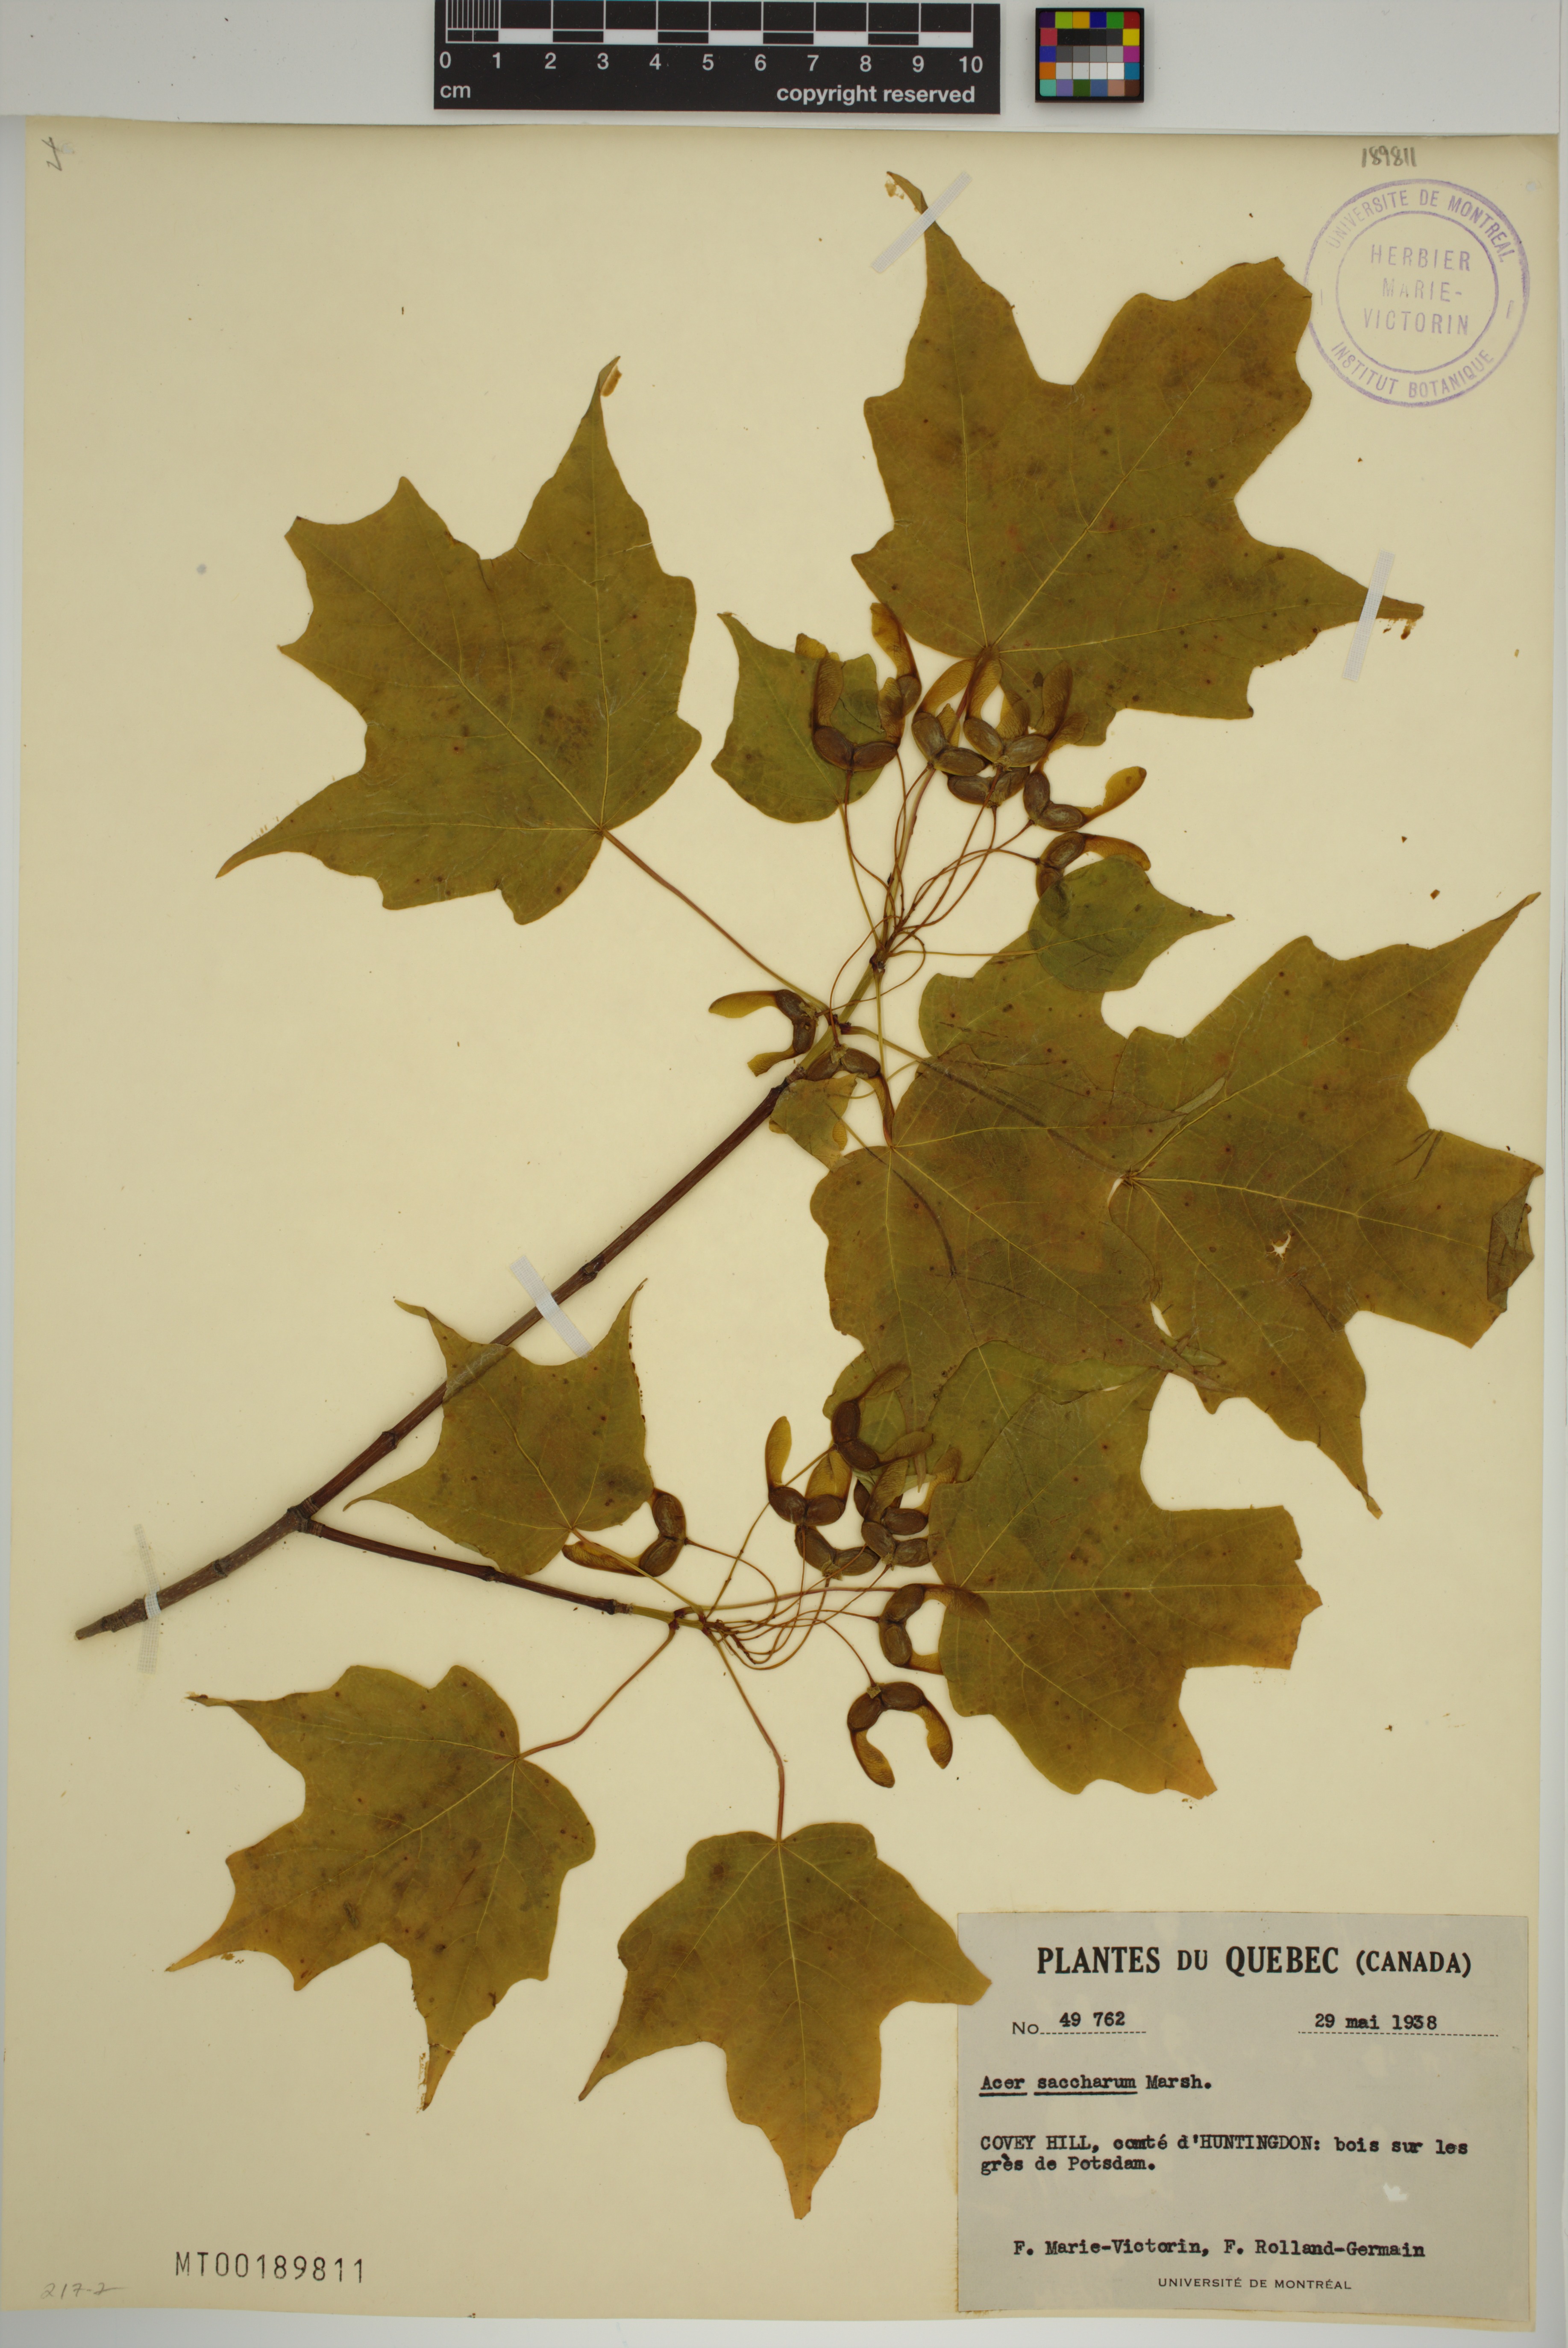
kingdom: Plantae
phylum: Tracheophyta
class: Magnoliopsida
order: Sapindales
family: Sapindaceae
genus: Acer
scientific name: Acer saccharum
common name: Sugar maple
